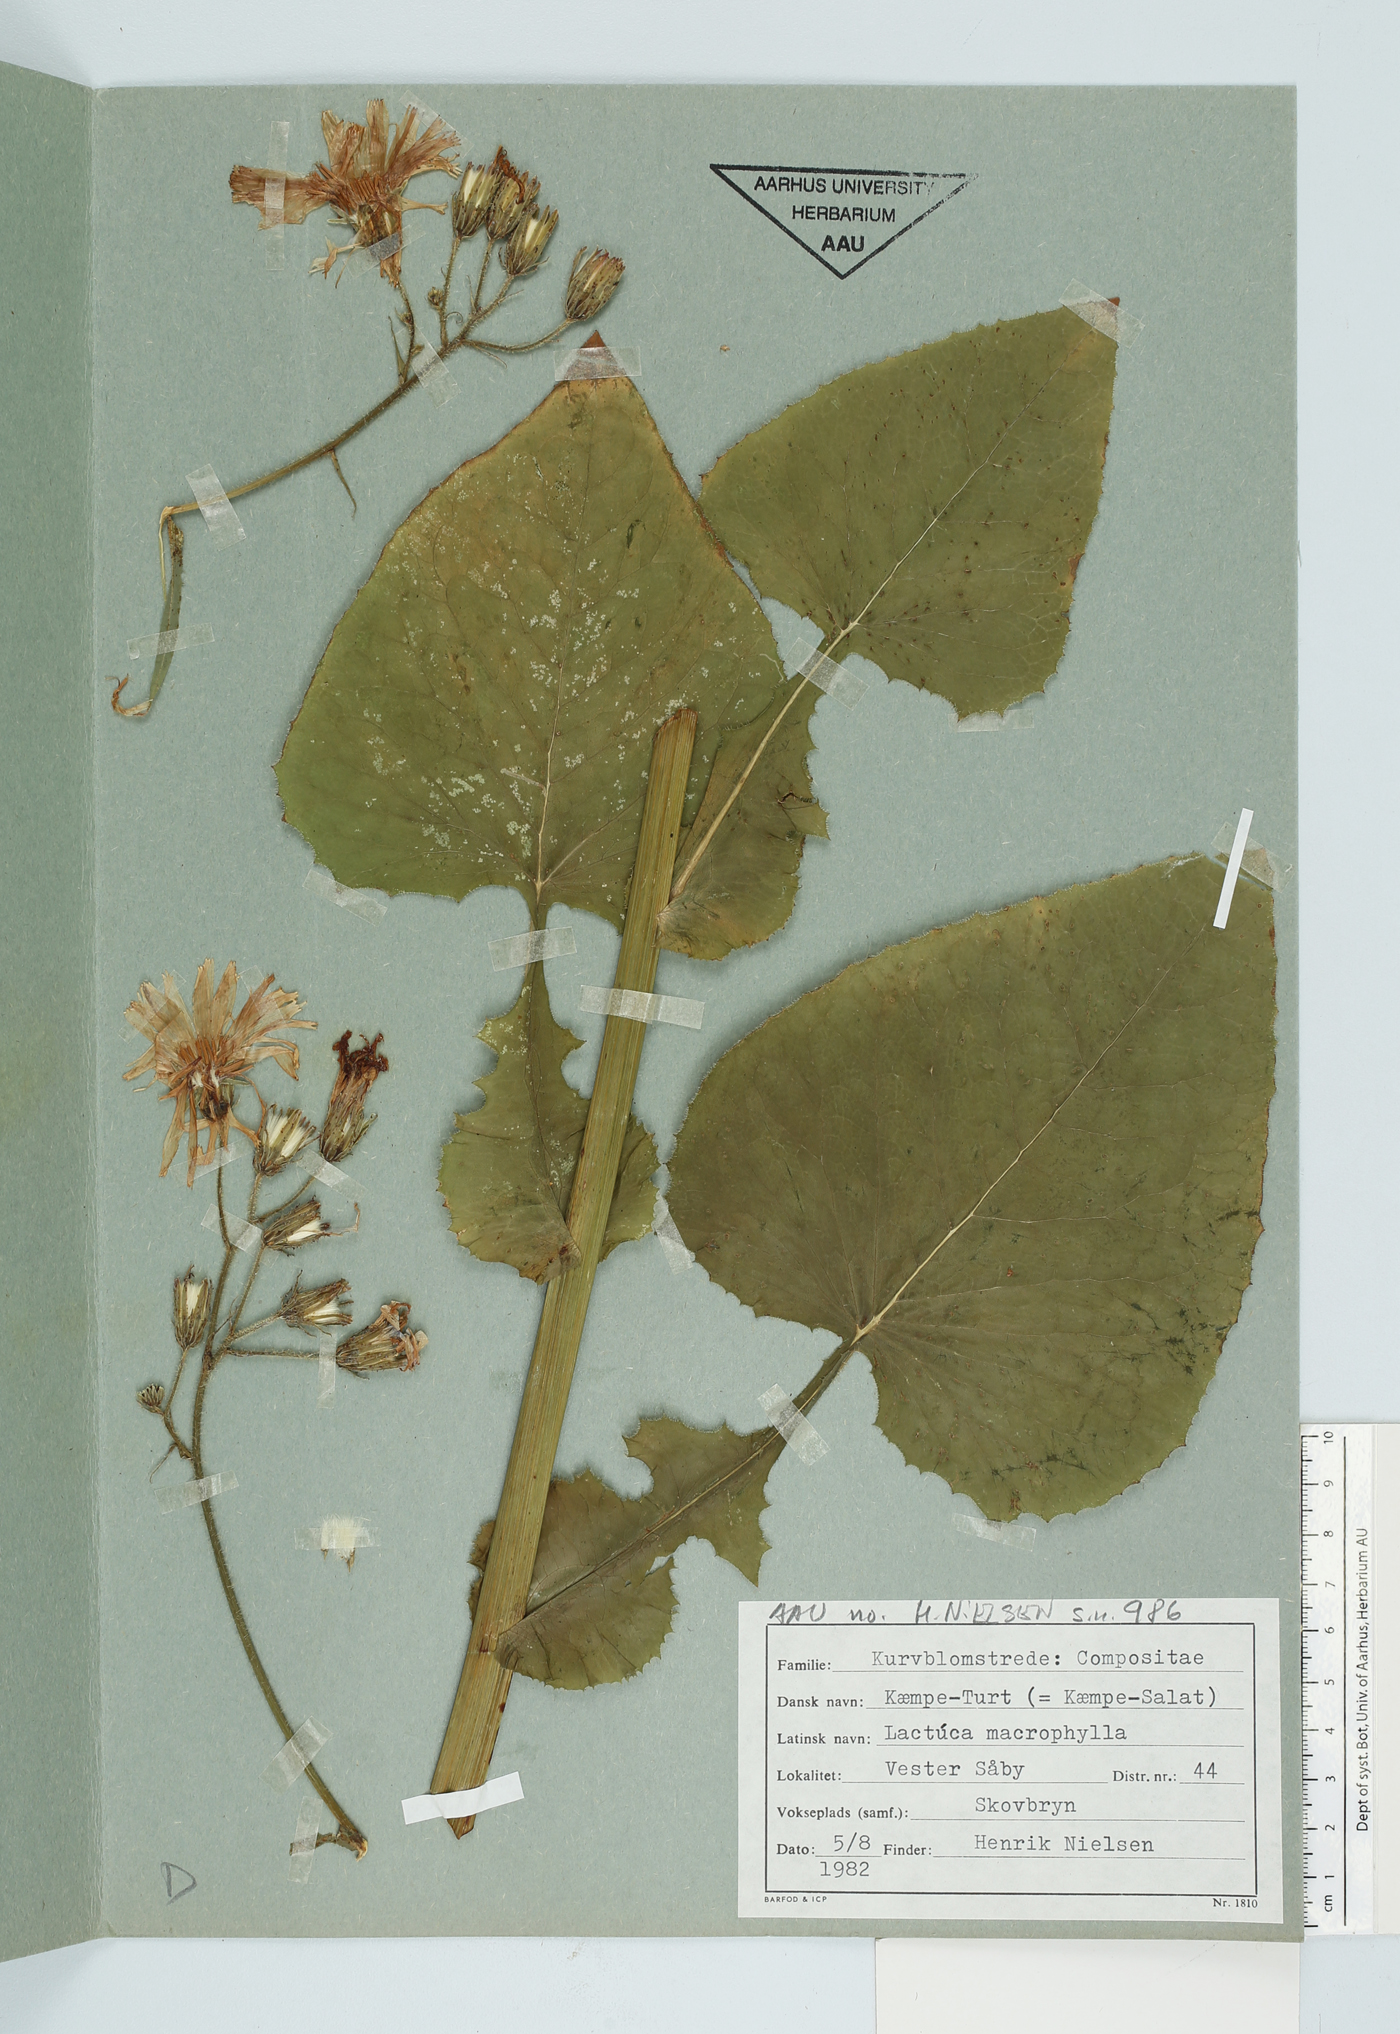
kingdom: Plantae
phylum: Tracheophyta
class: Magnoliopsida
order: Asterales
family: Asteraceae
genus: Lactuca
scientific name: Lactuca macrophylla
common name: Common blue-sow-thistle
